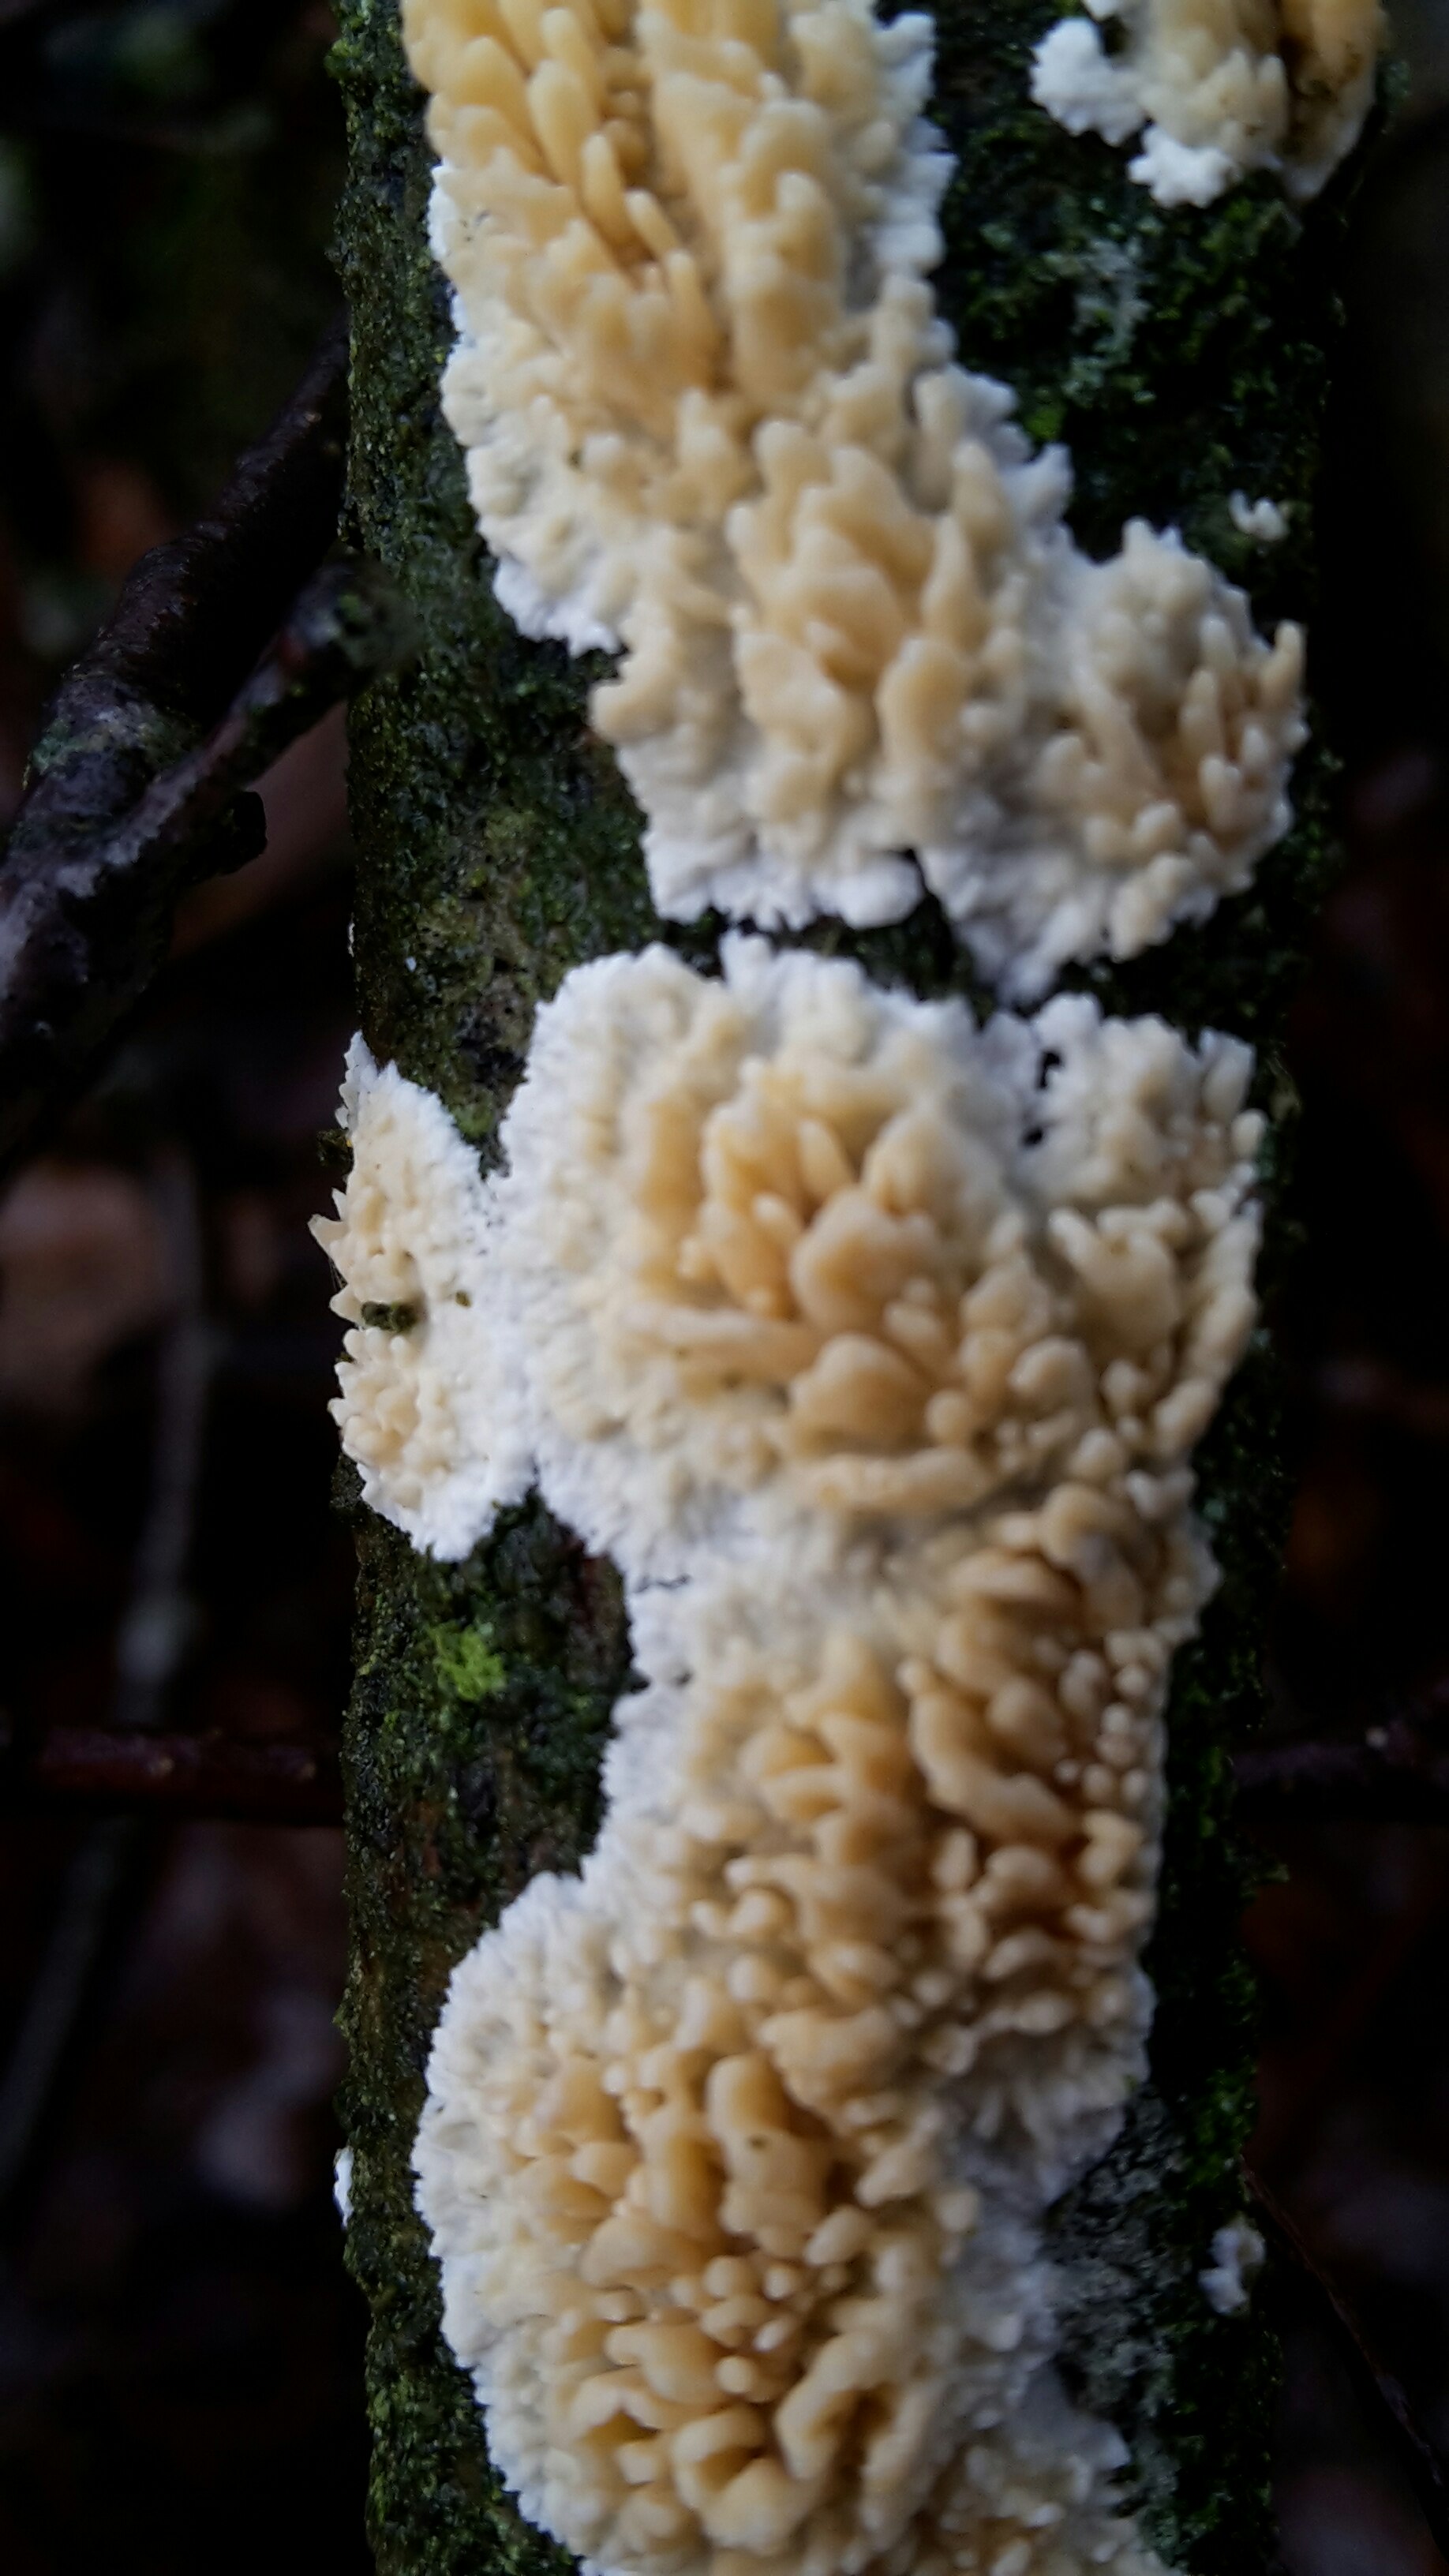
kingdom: Fungi
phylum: Basidiomycota
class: Agaricomycetes
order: Hymenochaetales
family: Schizoporaceae
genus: Xylodon
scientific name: Xylodon radula
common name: grovtandet kalkskind
